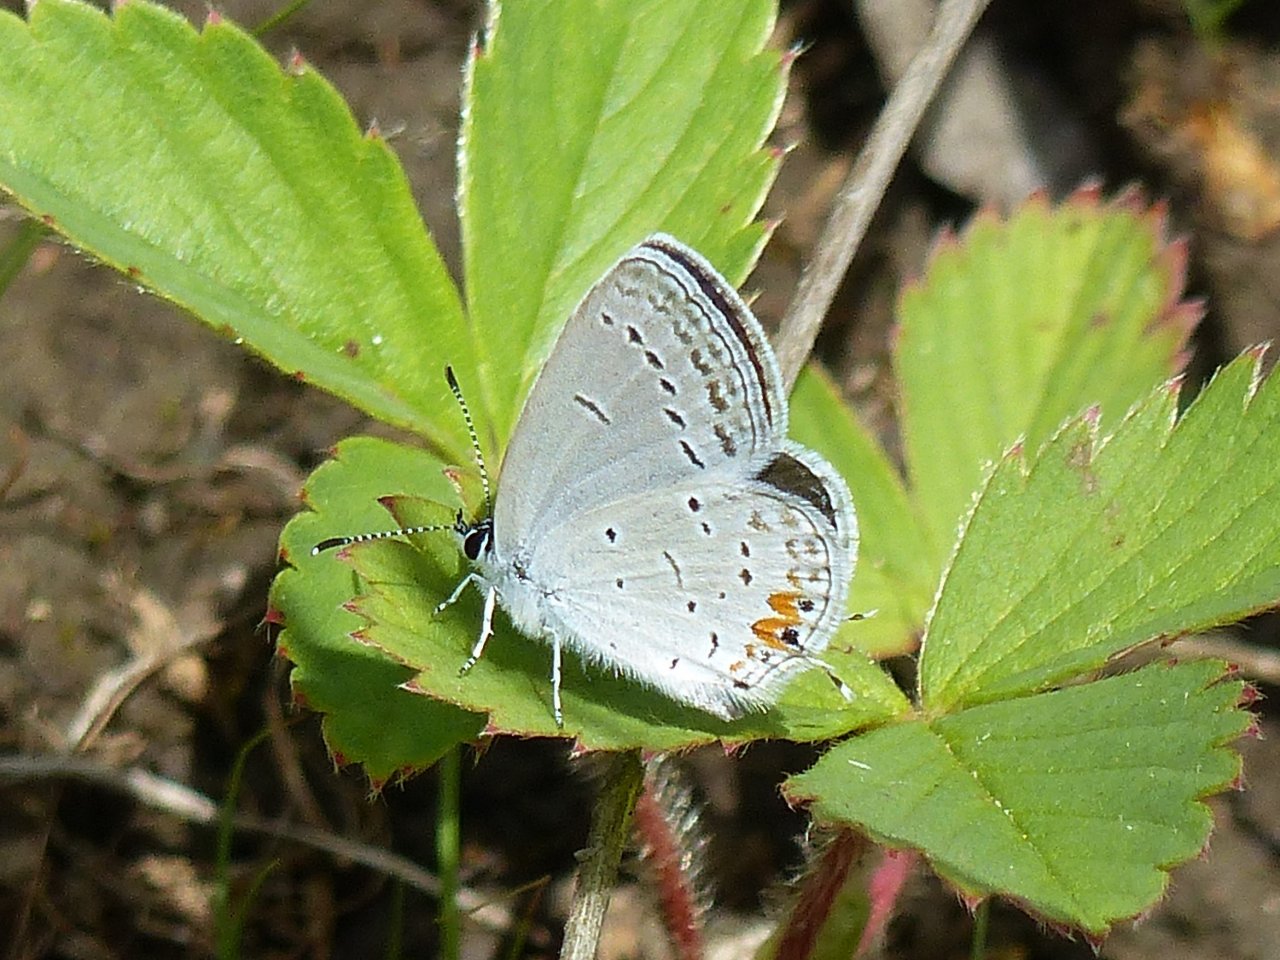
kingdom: Animalia
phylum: Arthropoda
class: Insecta
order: Lepidoptera
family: Lycaenidae
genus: Elkalyce
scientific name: Elkalyce comyntas
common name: Eastern Tailed-Blue
